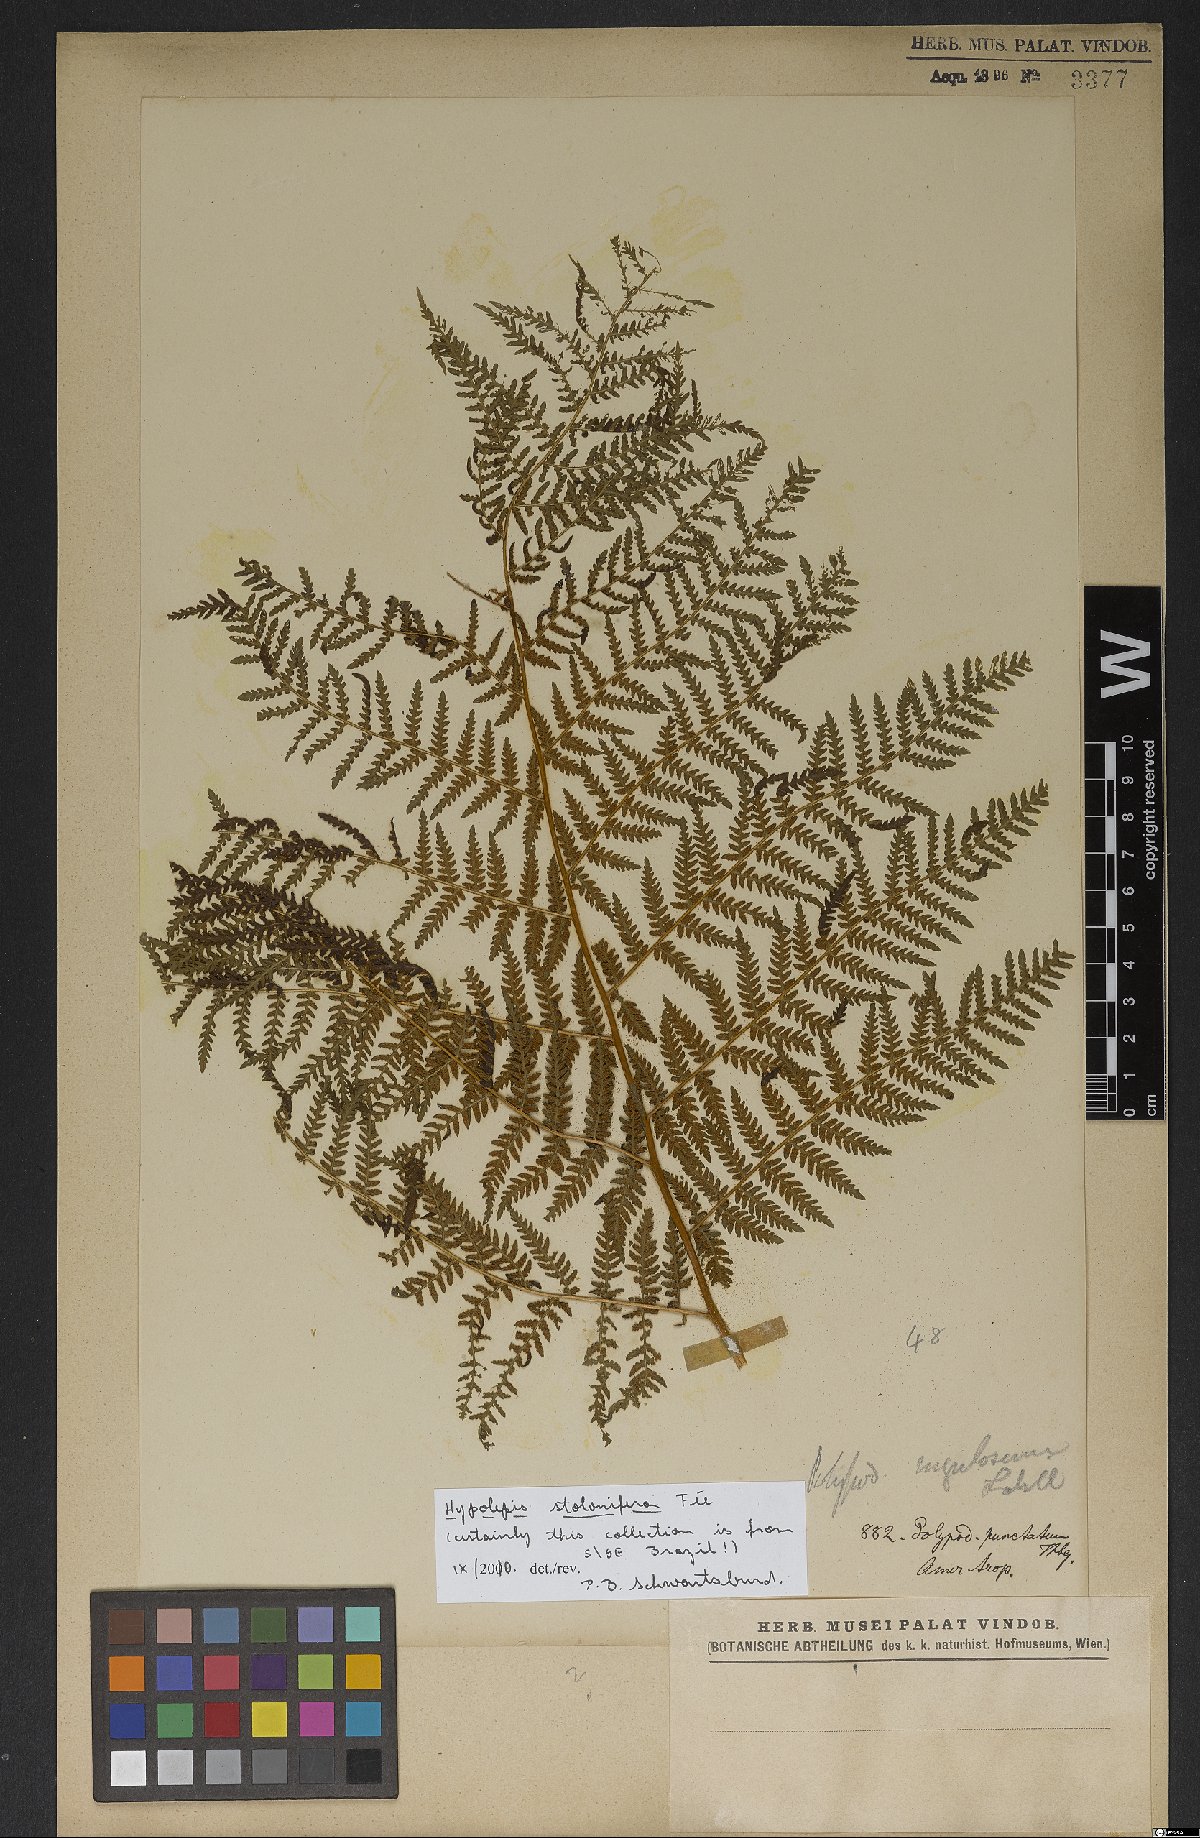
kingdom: Plantae
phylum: Tracheophyta
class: Polypodiopsida
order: Polypodiales
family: Dennstaedtiaceae
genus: Hypolepis
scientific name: Hypolepis stolonifera
